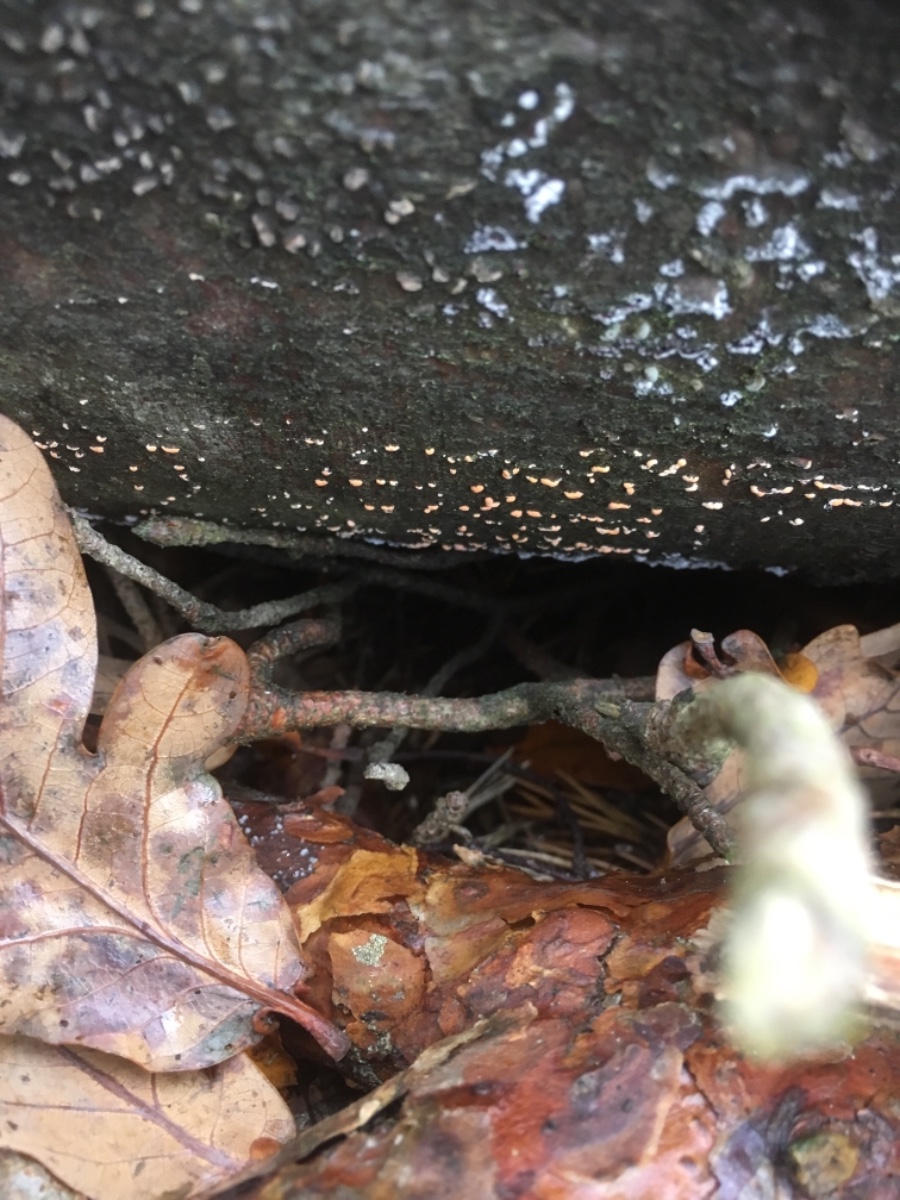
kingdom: Fungi
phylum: Ascomycota
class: Sordariomycetes
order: Hypocreales
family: Nectriaceae
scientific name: Nectriaceae
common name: cinnobersvampfamilien
